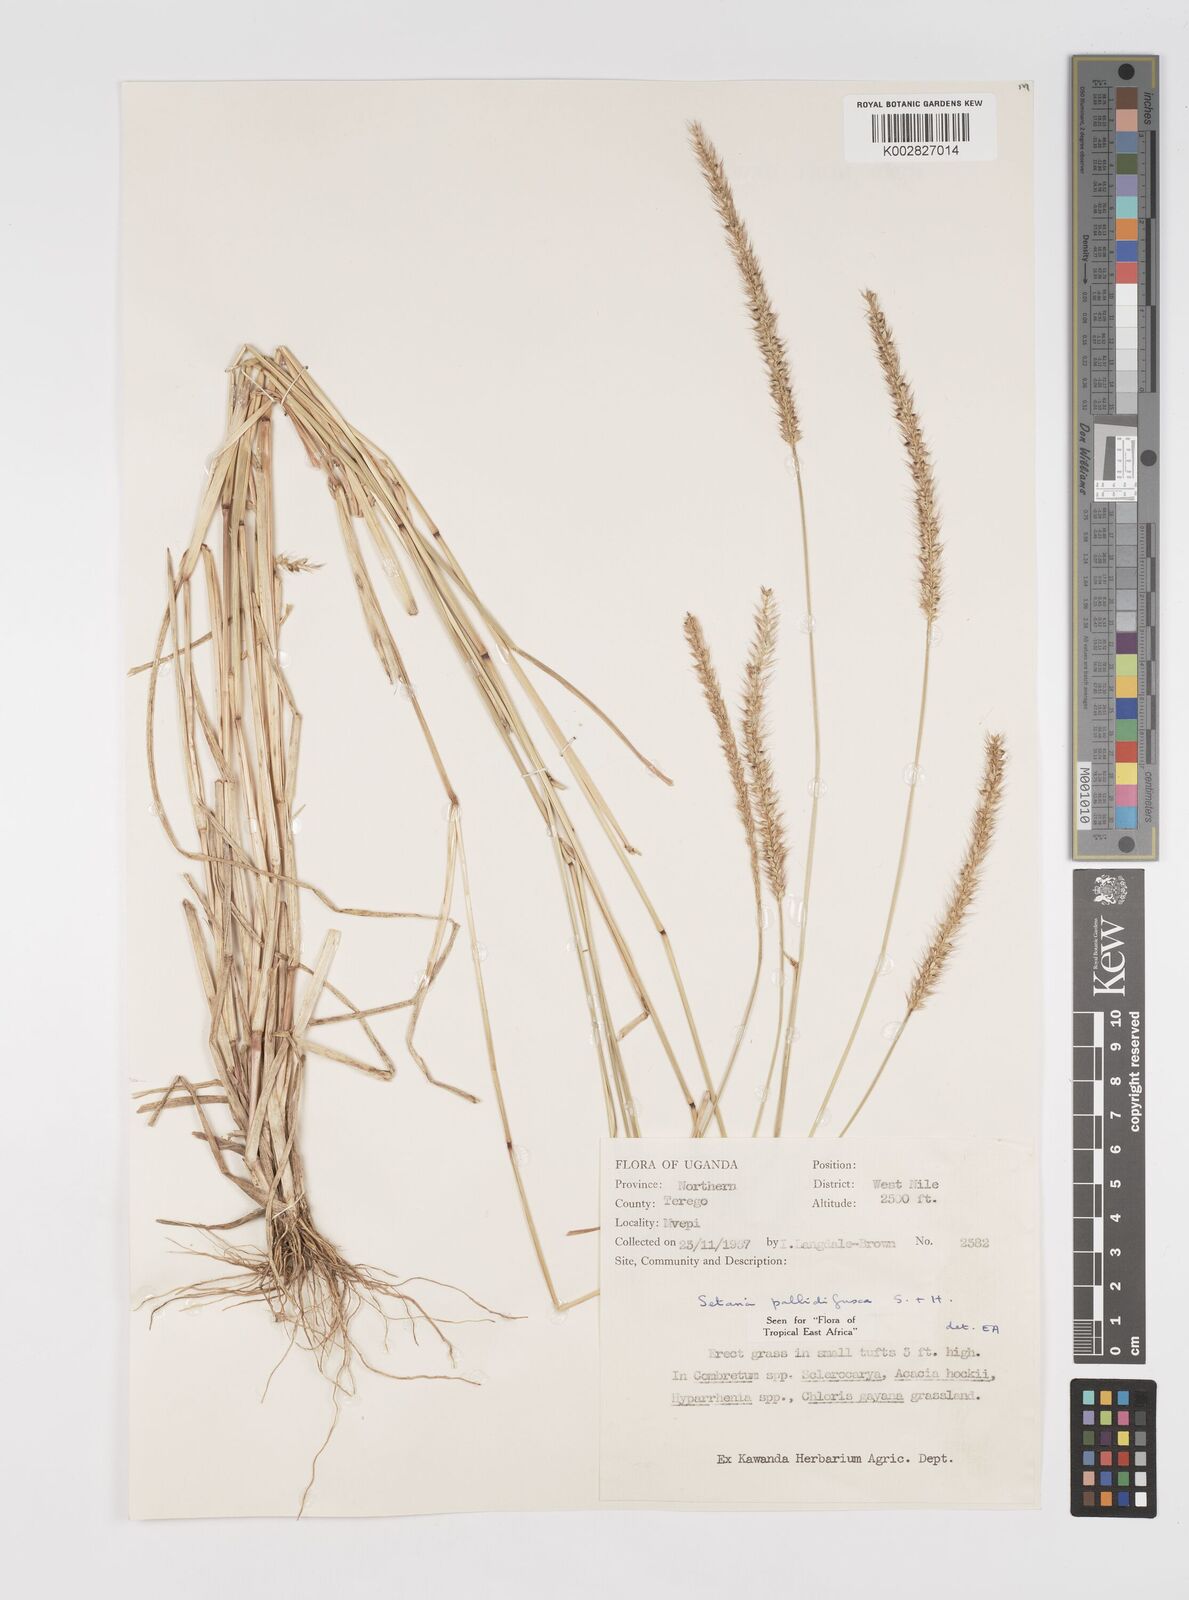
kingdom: Plantae
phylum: Tracheophyta
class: Liliopsida
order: Poales
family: Poaceae
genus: Setaria
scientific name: Setaria pumila
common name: Yellow bristle-grass
